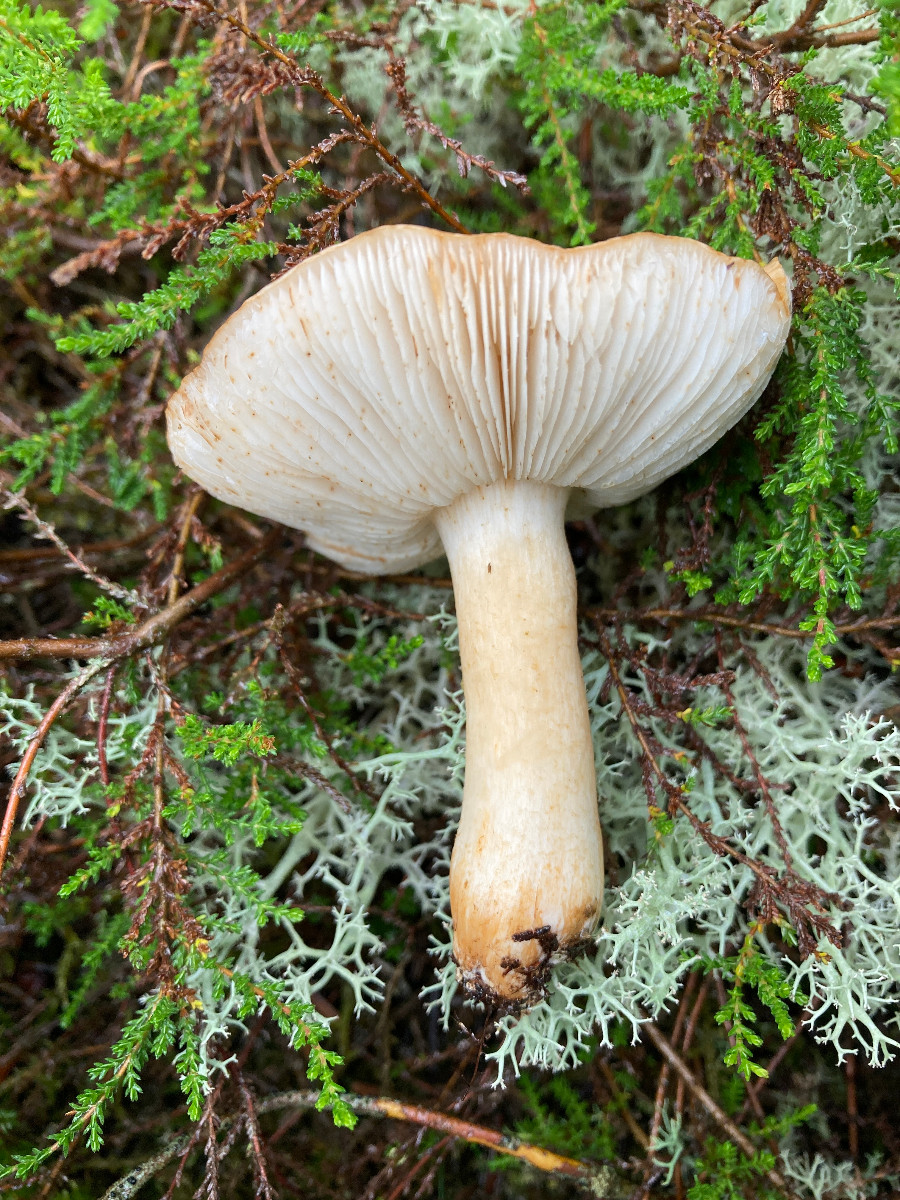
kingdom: Fungi
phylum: Basidiomycota
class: Agaricomycetes
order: Agaricales
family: Tricholomataceae
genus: Tricholoma
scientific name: Tricholoma stans
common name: stolt ridderhat
